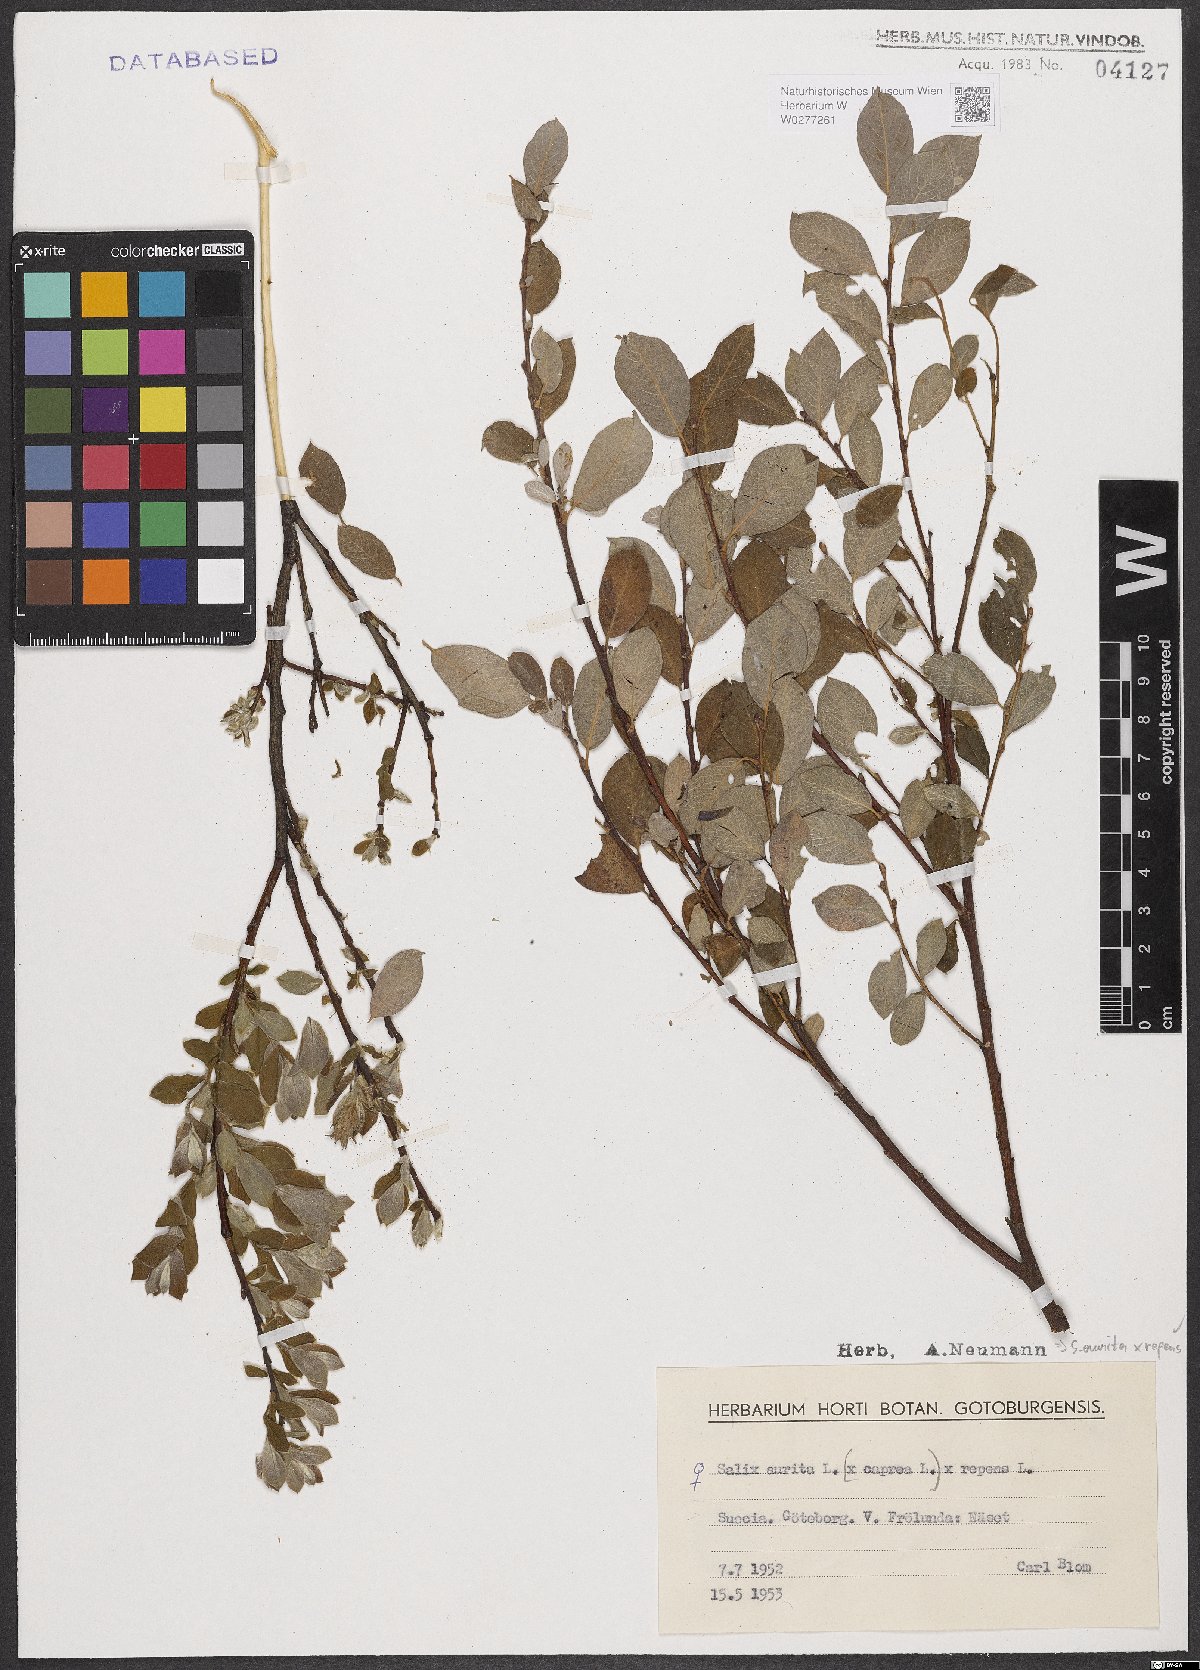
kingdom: Plantae
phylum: Tracheophyta
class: Magnoliopsida
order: Malpighiales
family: Salicaceae
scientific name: Salicaceae
